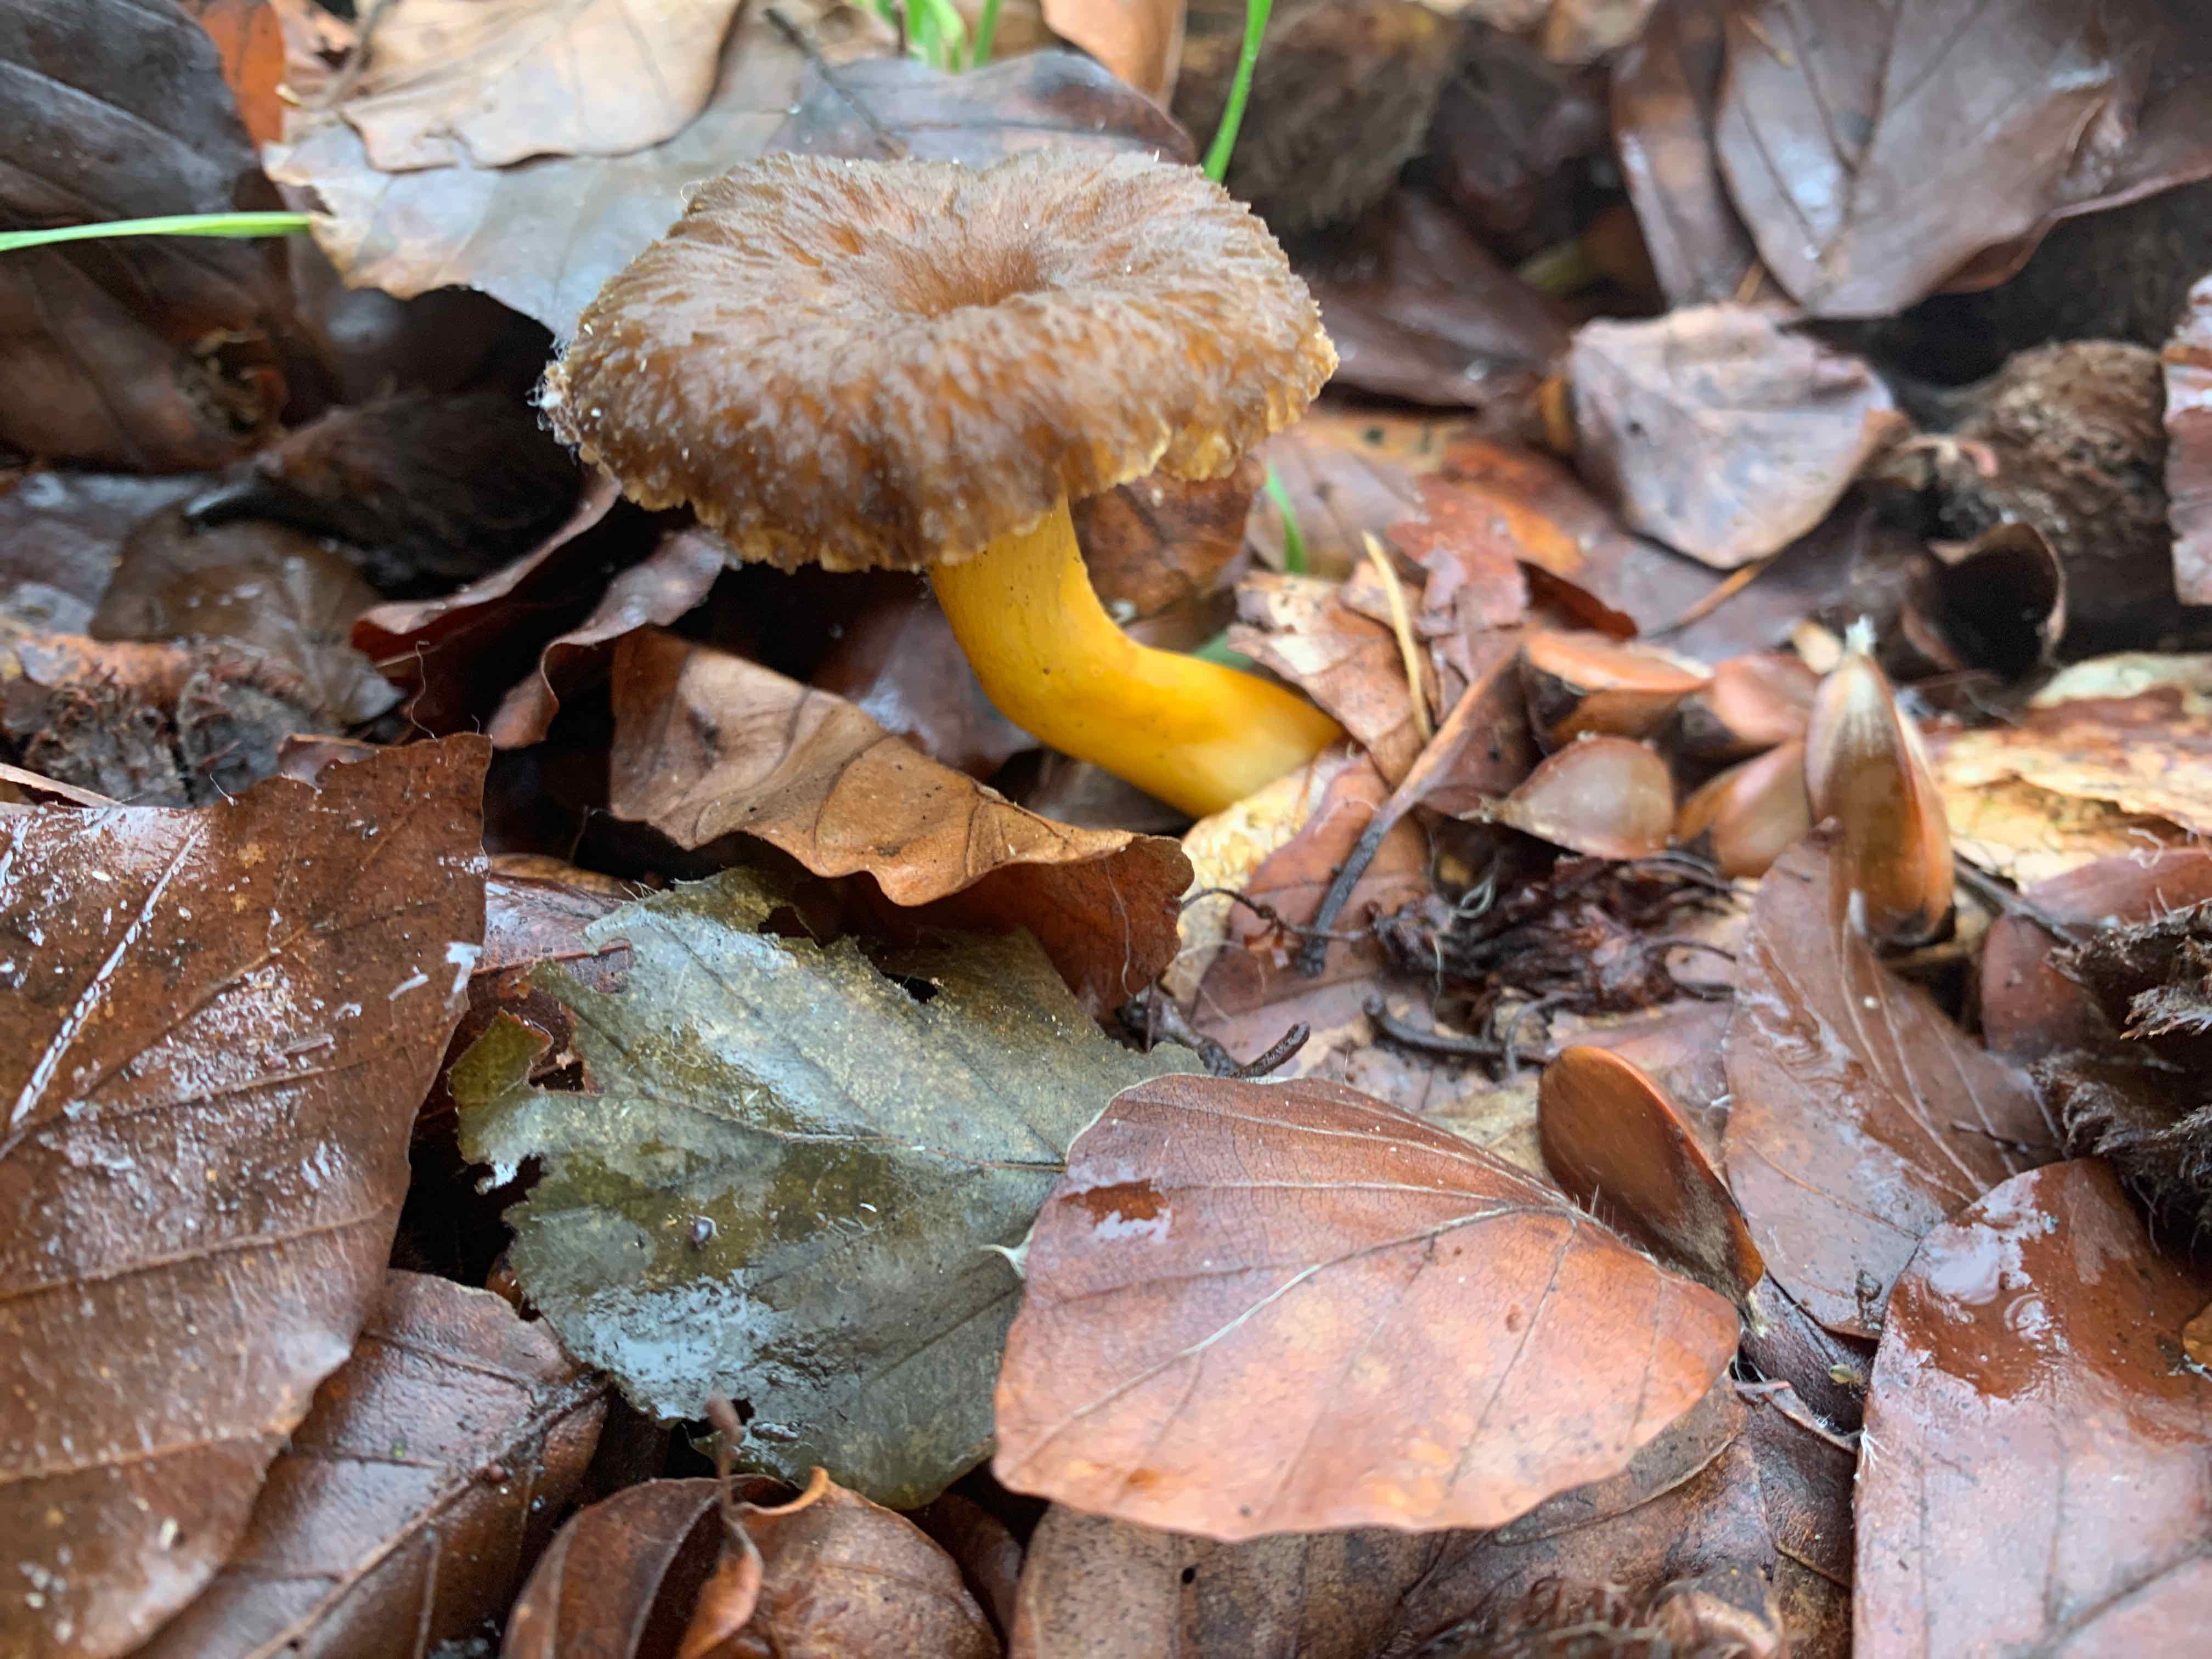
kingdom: Fungi
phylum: Basidiomycota
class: Agaricomycetes
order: Cantharellales
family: Hydnaceae
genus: Craterellus
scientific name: Craterellus tubaeformis
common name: tragt-kantarel
